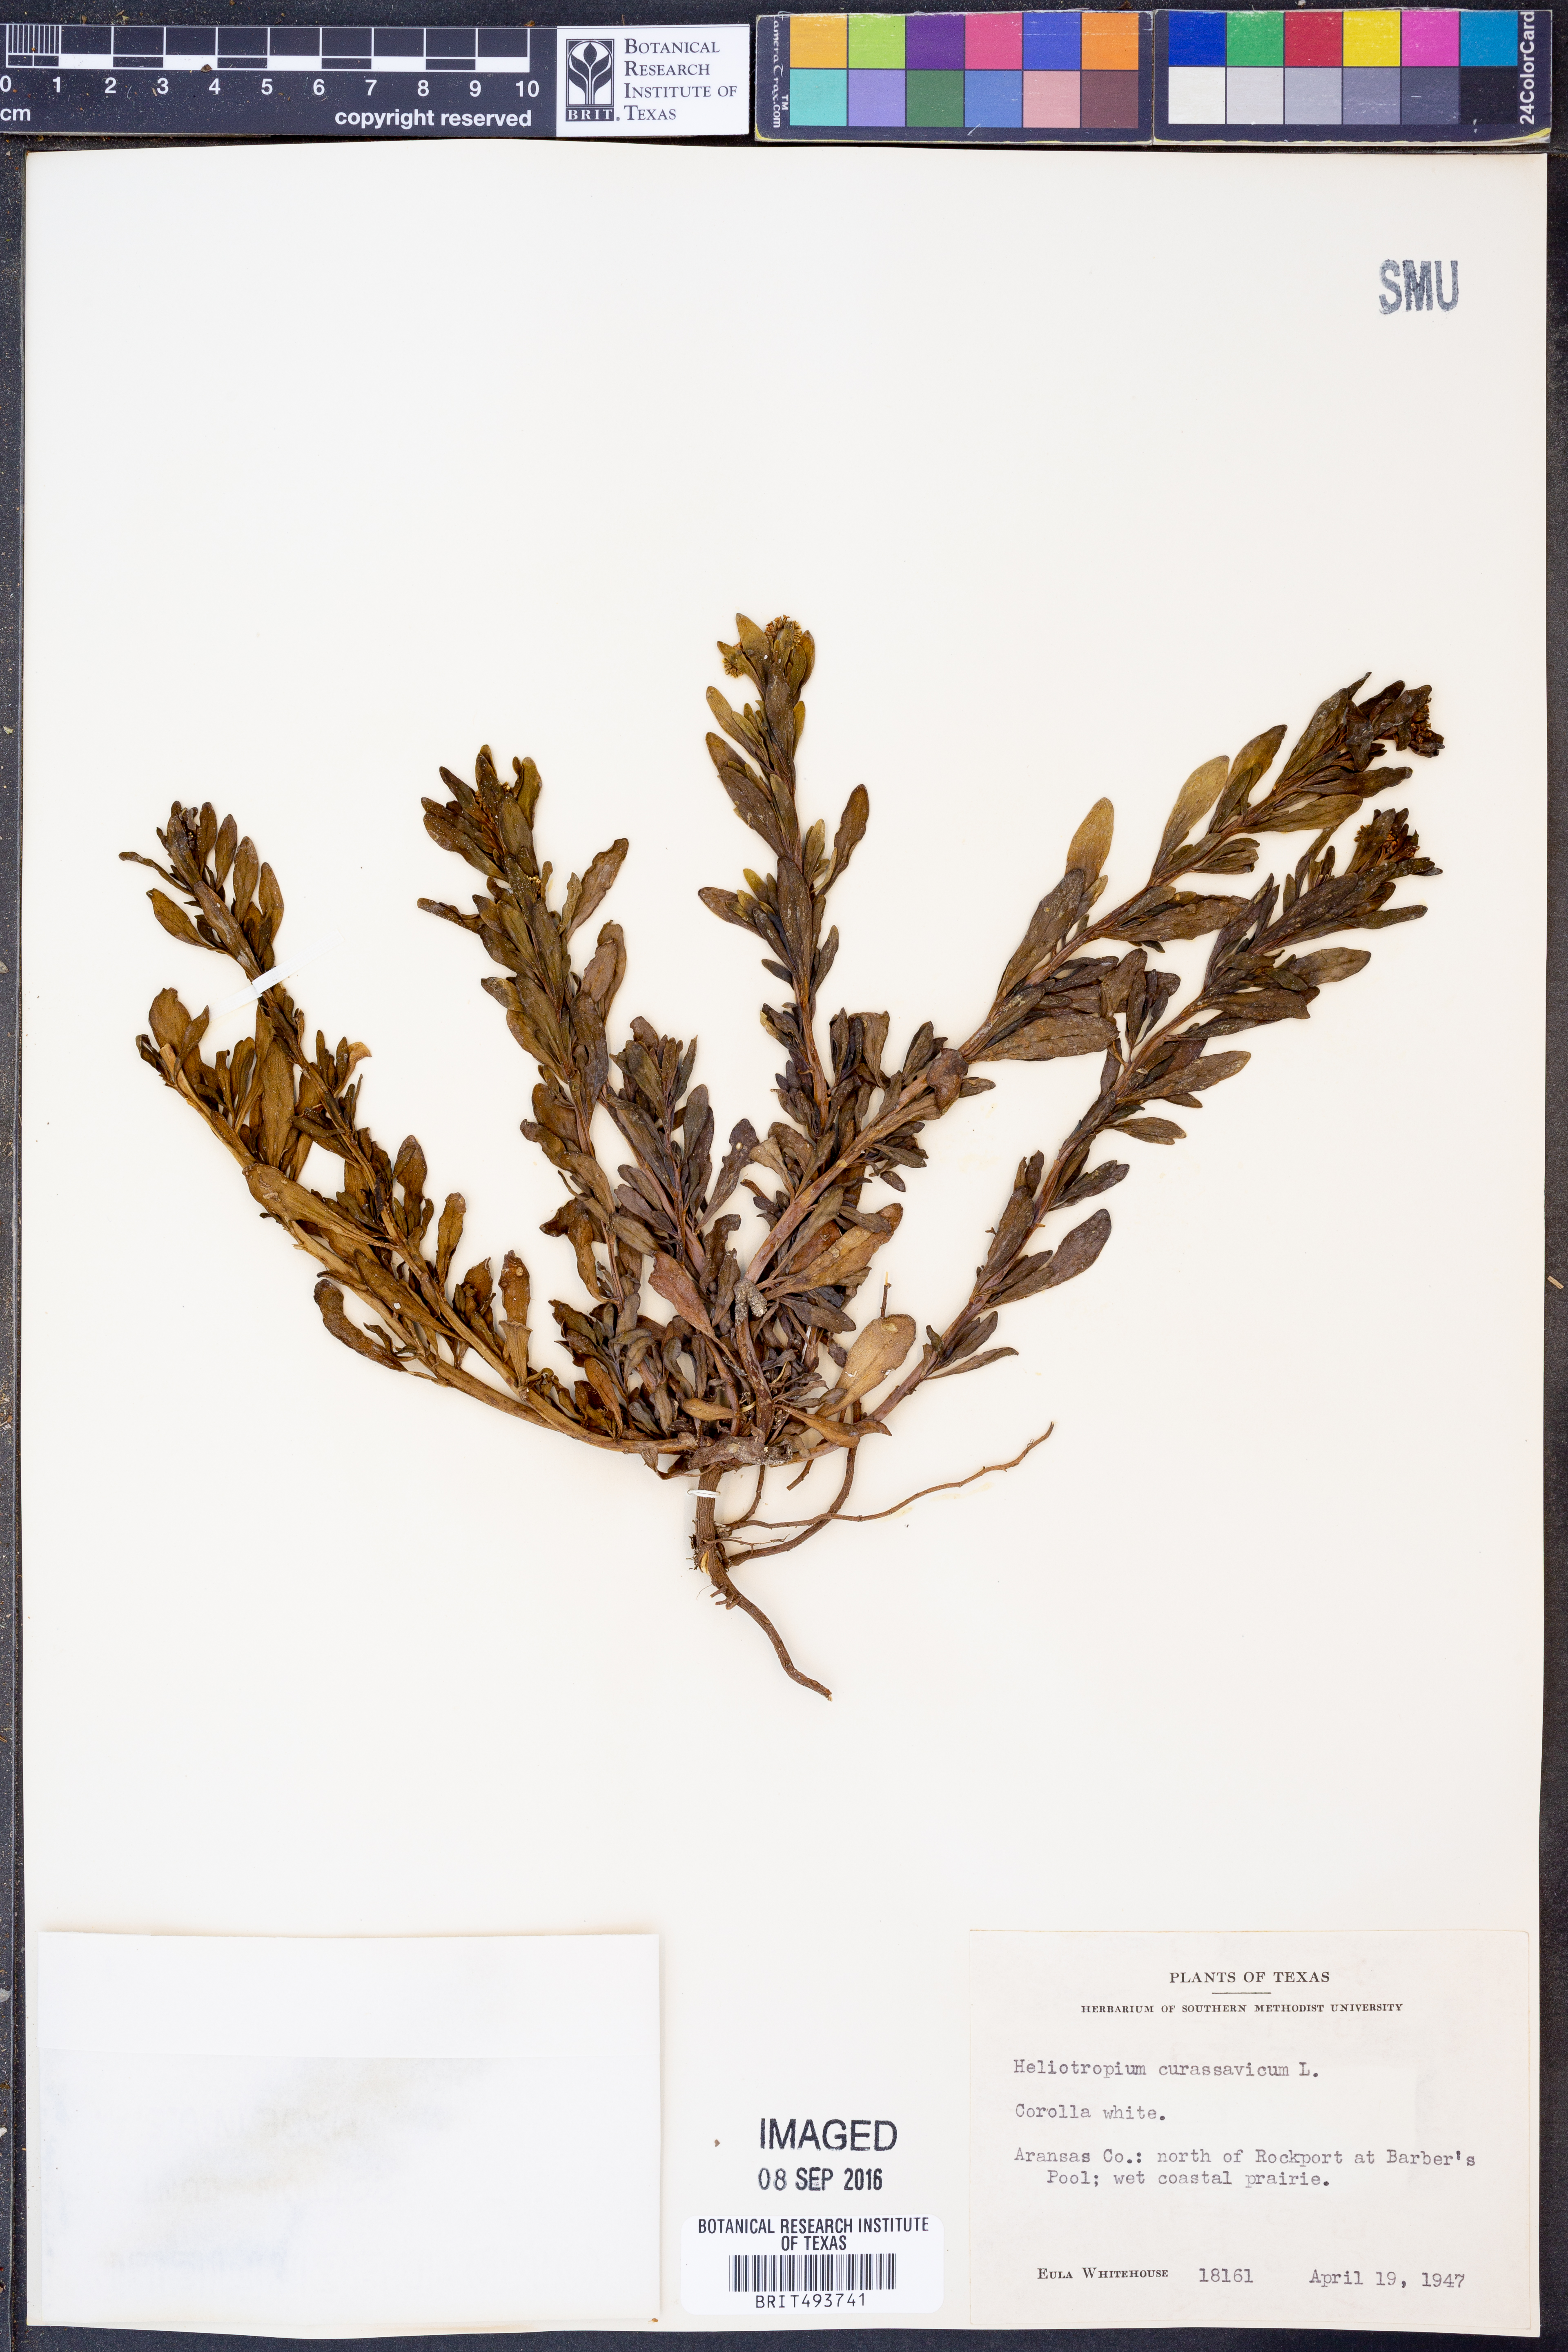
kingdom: Plantae
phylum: Tracheophyta
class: Magnoliopsida
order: Boraginales
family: Heliotropiaceae
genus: Heliotropium
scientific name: Heliotropium curassavicum
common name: Seaside heliotrope
